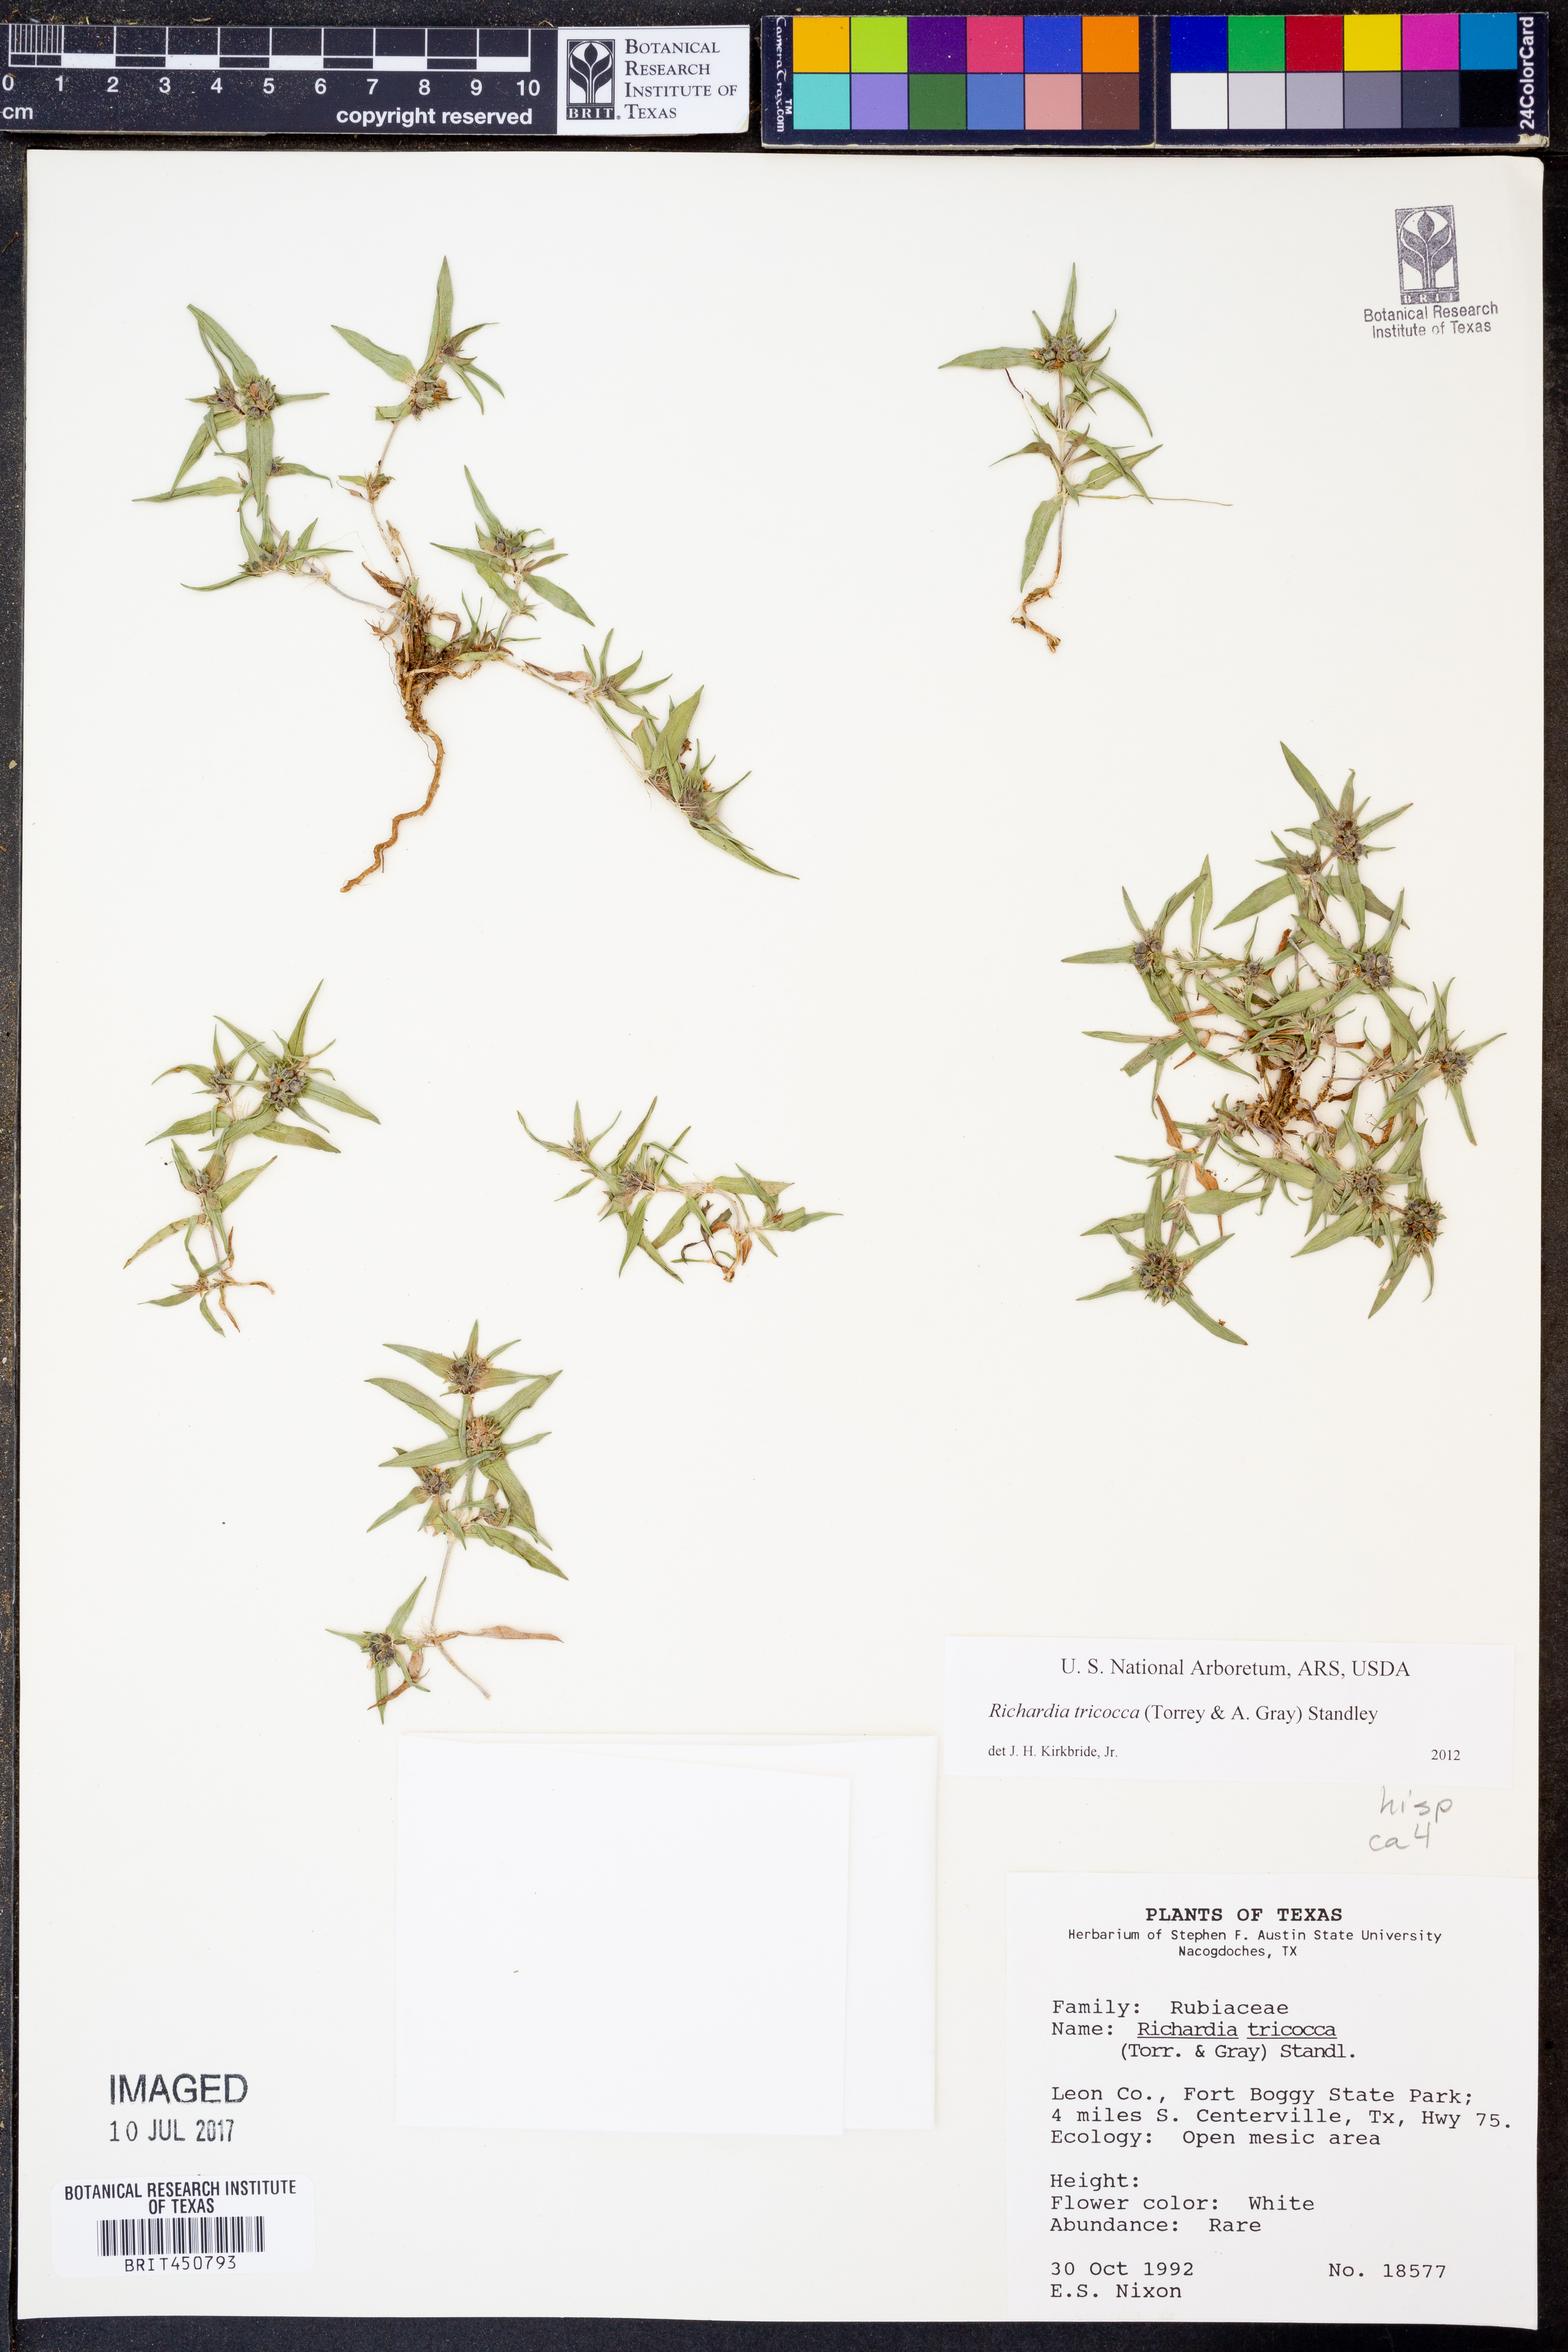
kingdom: Plantae
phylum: Tracheophyta
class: Magnoliopsida
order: Gentianales
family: Rubiaceae
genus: Richardia
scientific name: Richardia tricocca
